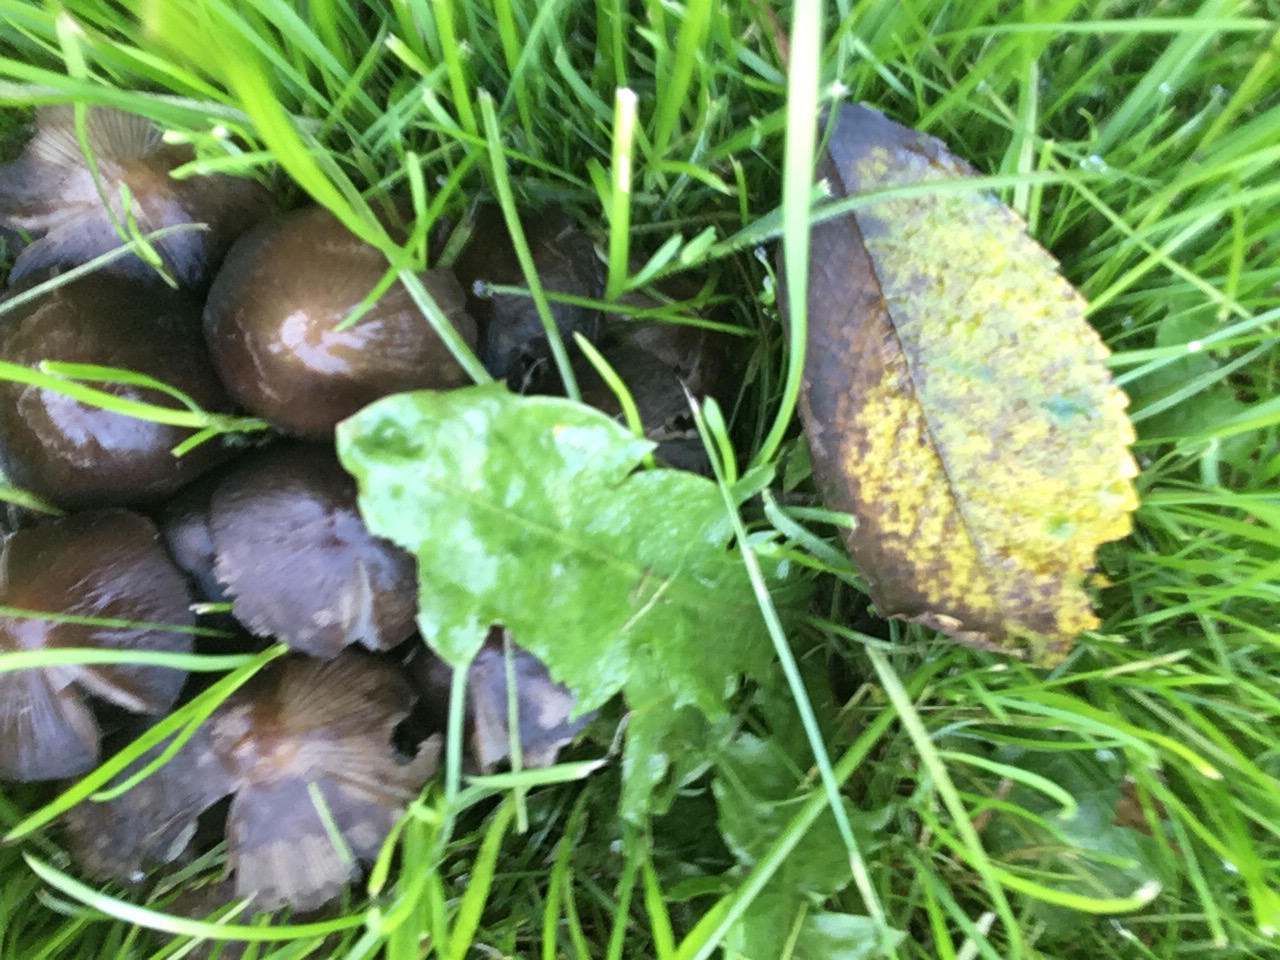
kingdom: Fungi
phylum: Basidiomycota
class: Agaricomycetes
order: Agaricales
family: Psathyrellaceae
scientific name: Psathyrellaceae
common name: mørkhatfamilien
